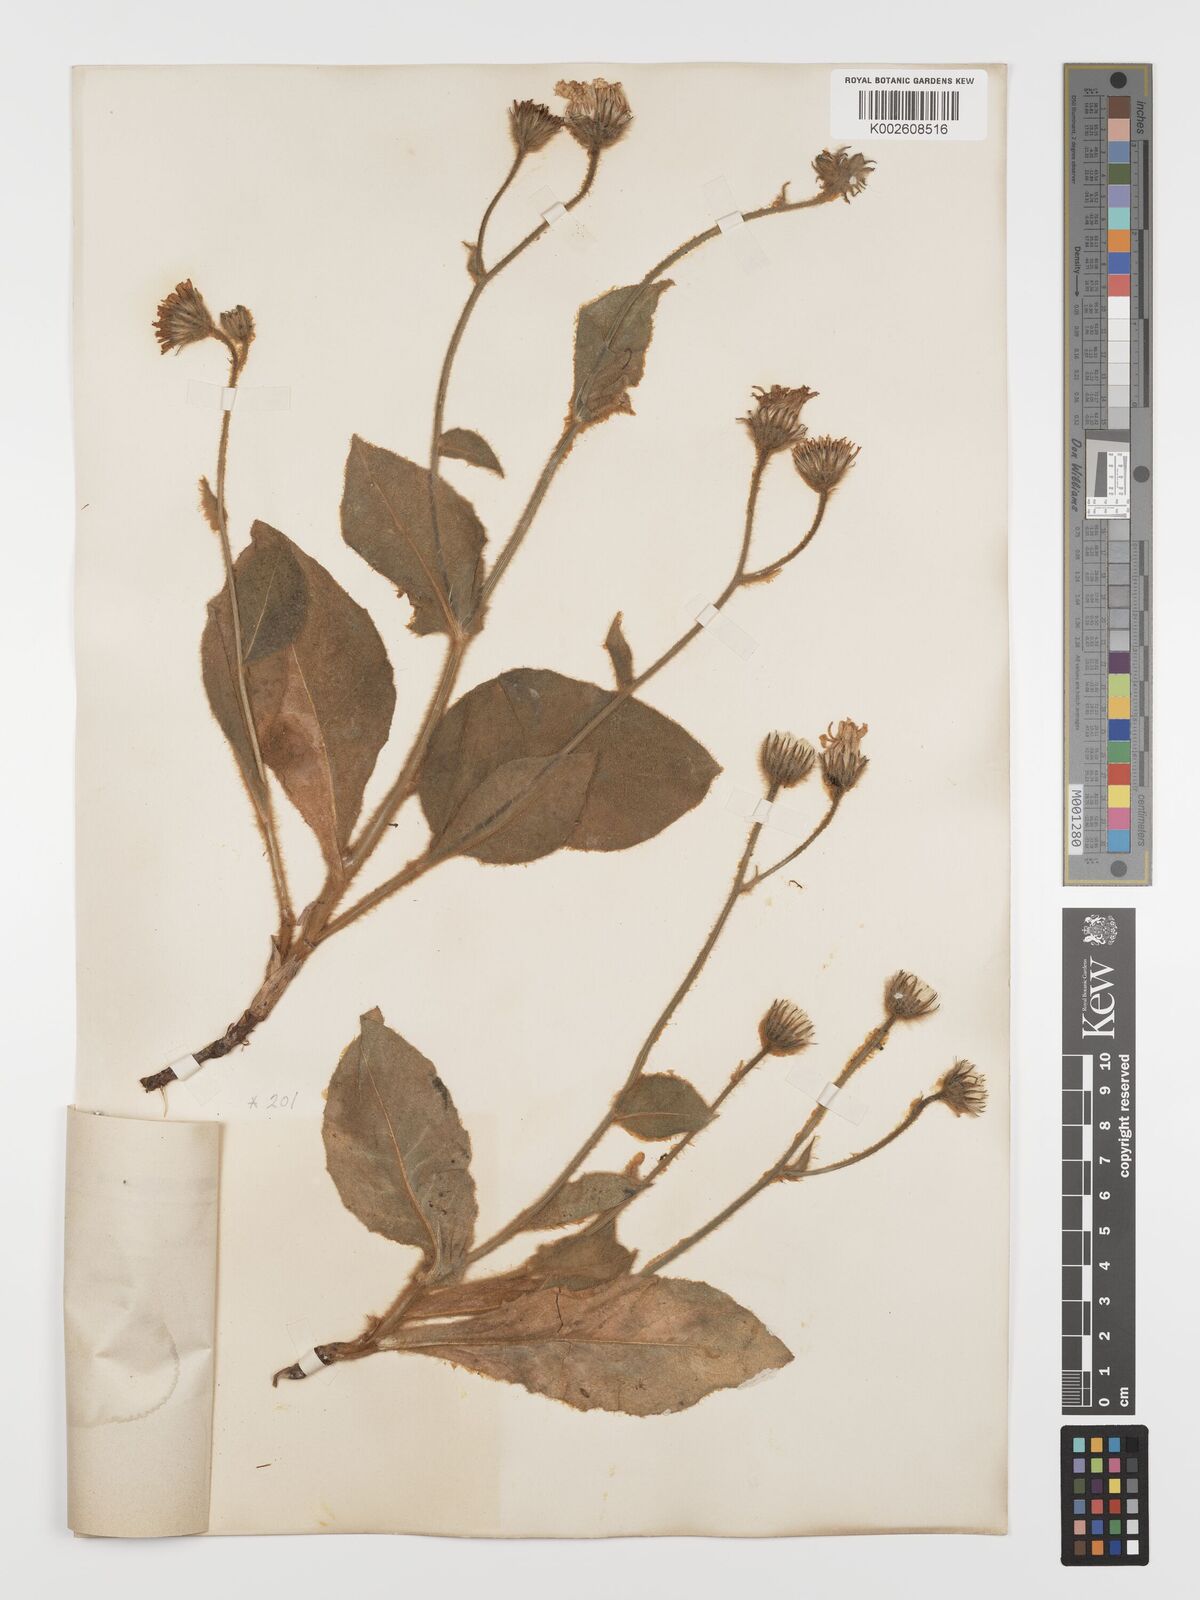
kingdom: Plantae
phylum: Tracheophyta
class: Magnoliopsida
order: Asterales
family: Asteraceae
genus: Hieracium
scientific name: Hieracium coronariifolium
